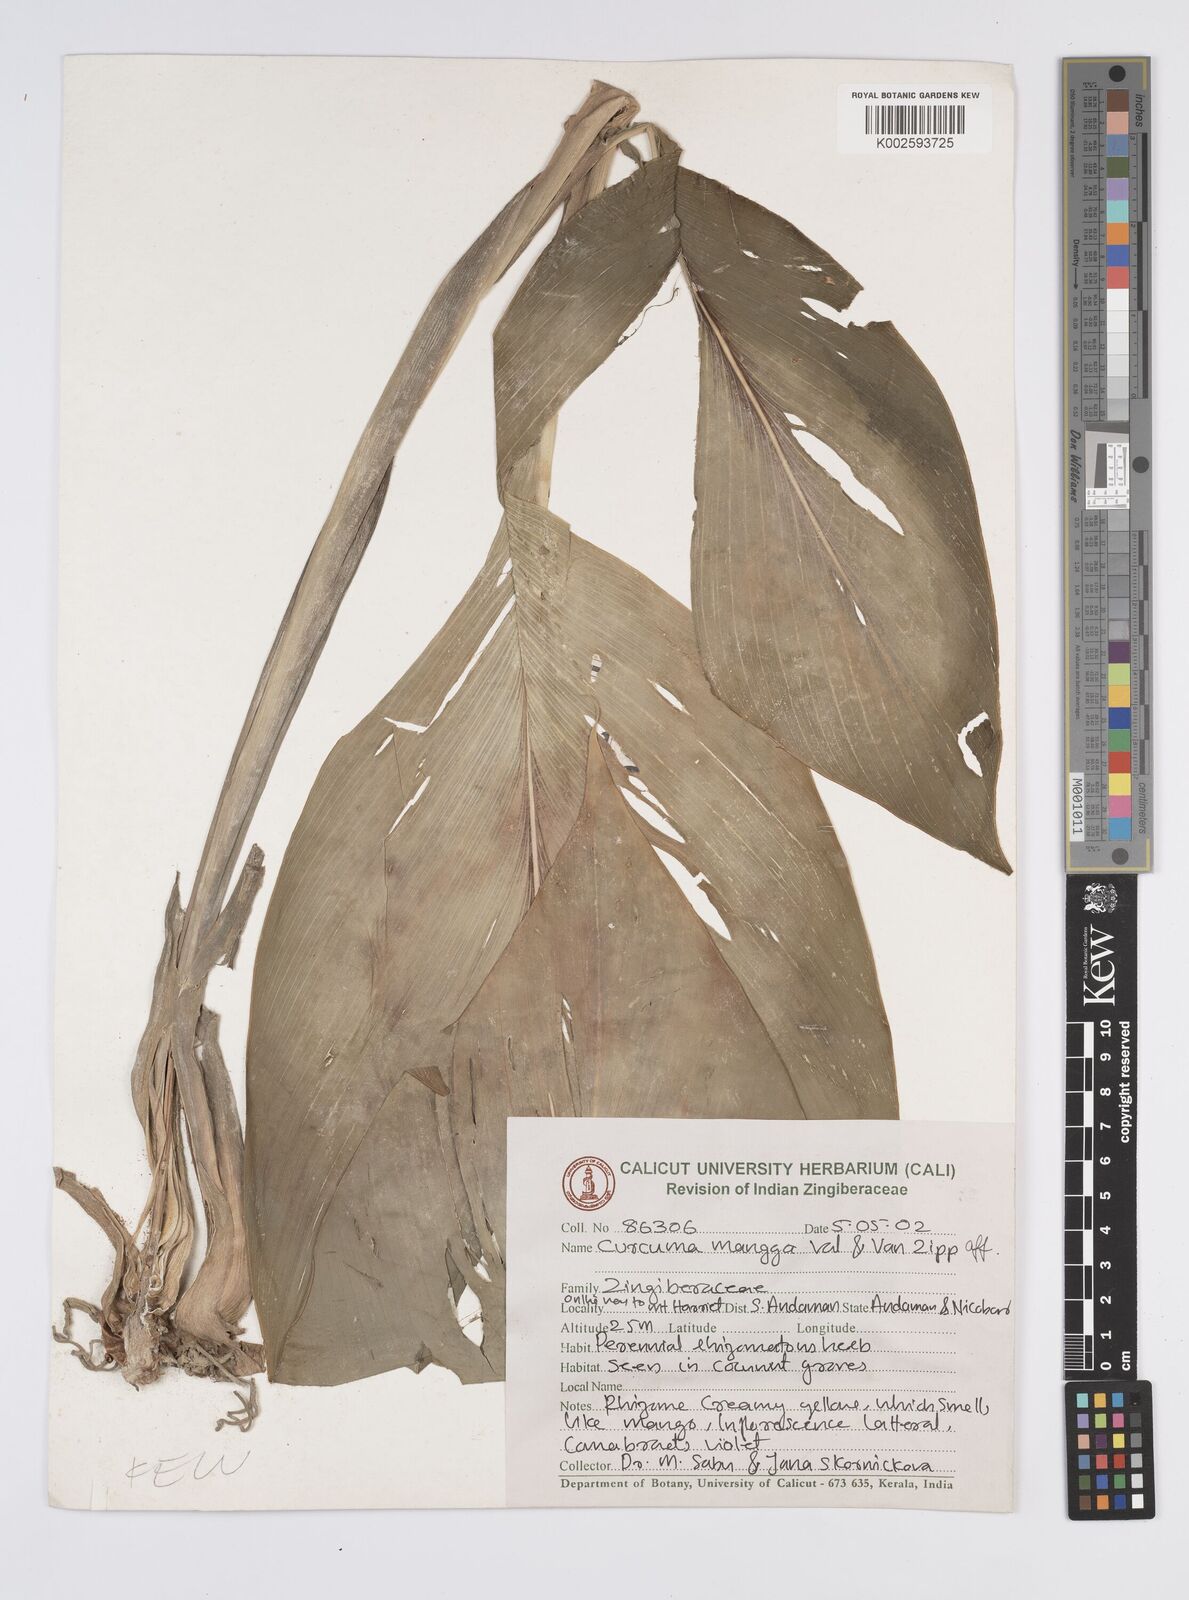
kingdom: Plantae
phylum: Tracheophyta
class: Liliopsida
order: Zingiberales
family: Zingiberaceae
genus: Curcuma
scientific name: Curcuma mangga
